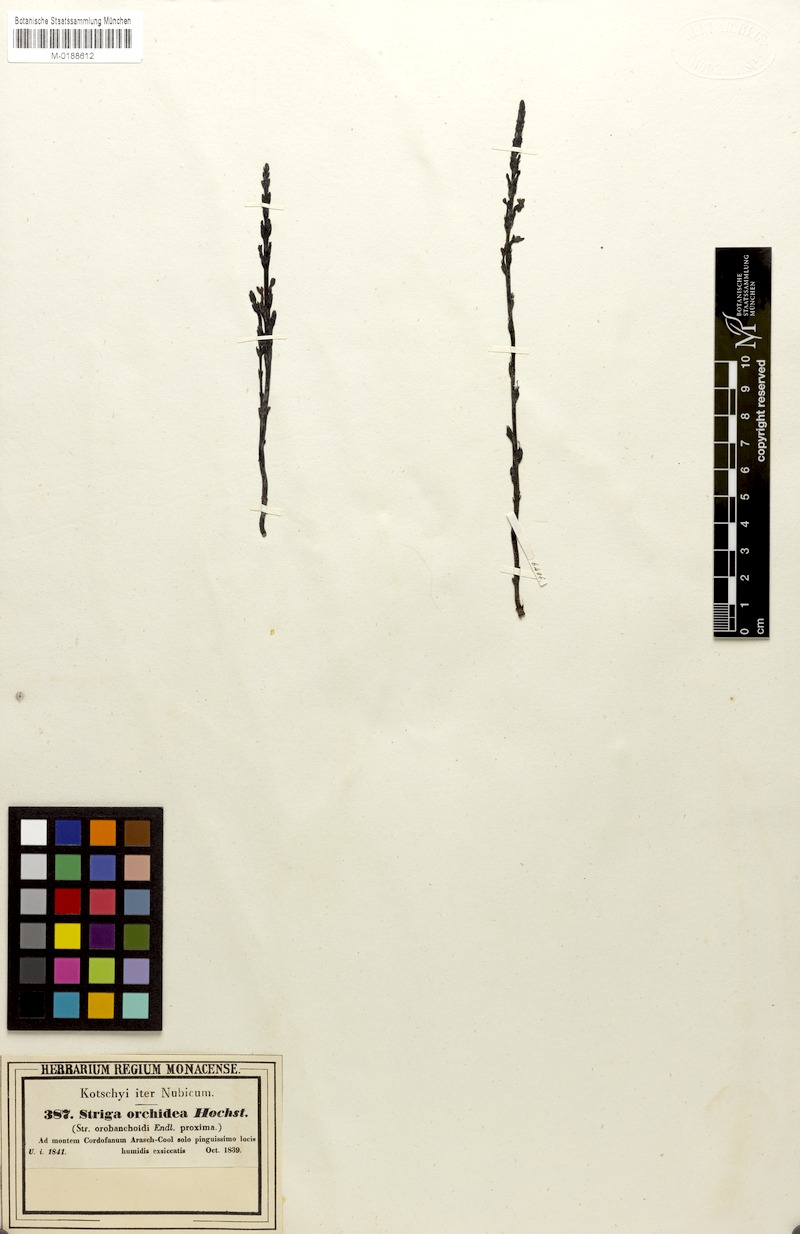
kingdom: Plantae
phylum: Tracheophyta
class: Magnoliopsida
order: Lamiales
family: Orobanchaceae
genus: Striga
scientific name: Striga gesnerioides
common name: Cowpea witchweed
